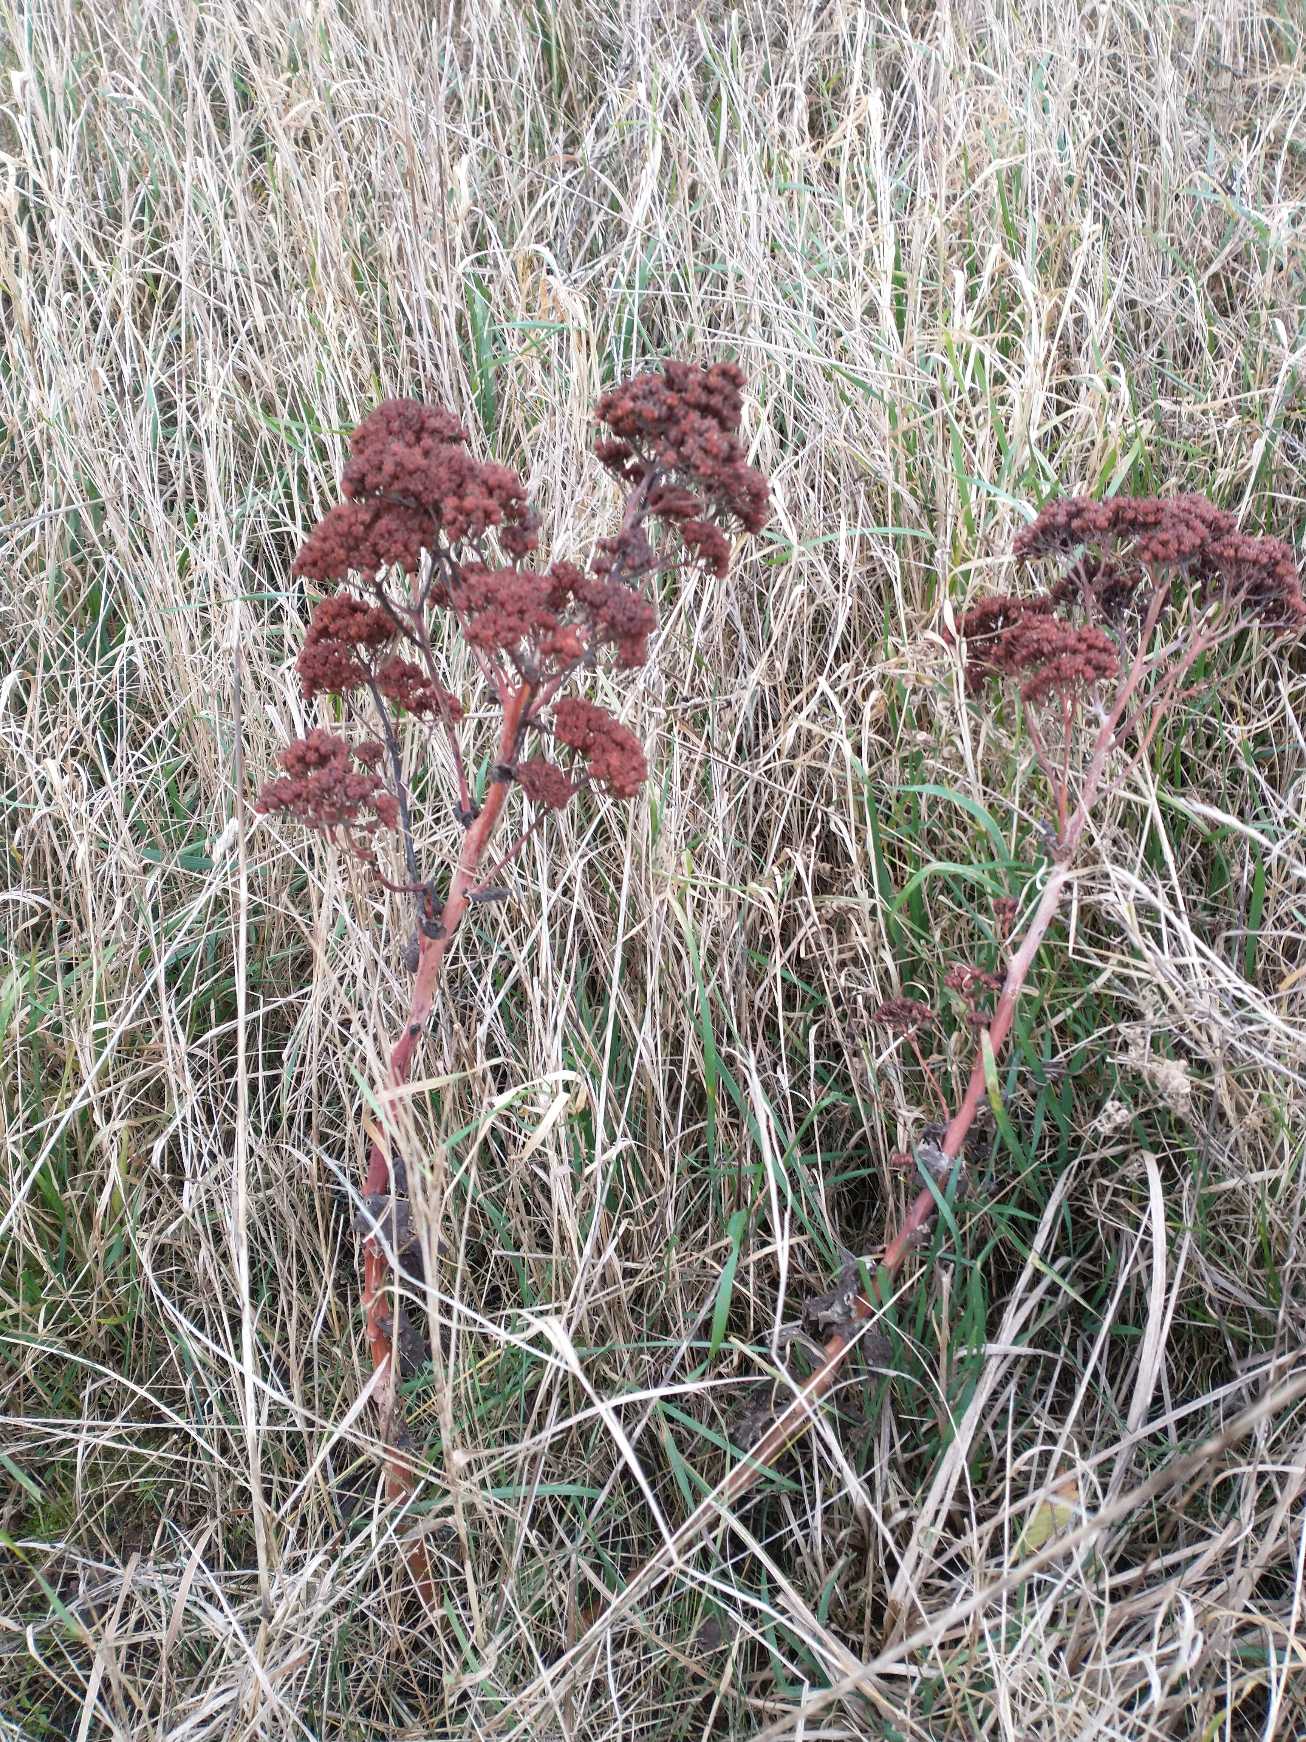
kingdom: Plantae
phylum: Tracheophyta
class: Magnoliopsida
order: Saxifragales
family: Crassulaceae
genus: Hylotelephium
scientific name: Hylotelephium telephium
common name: Sankthansurt
